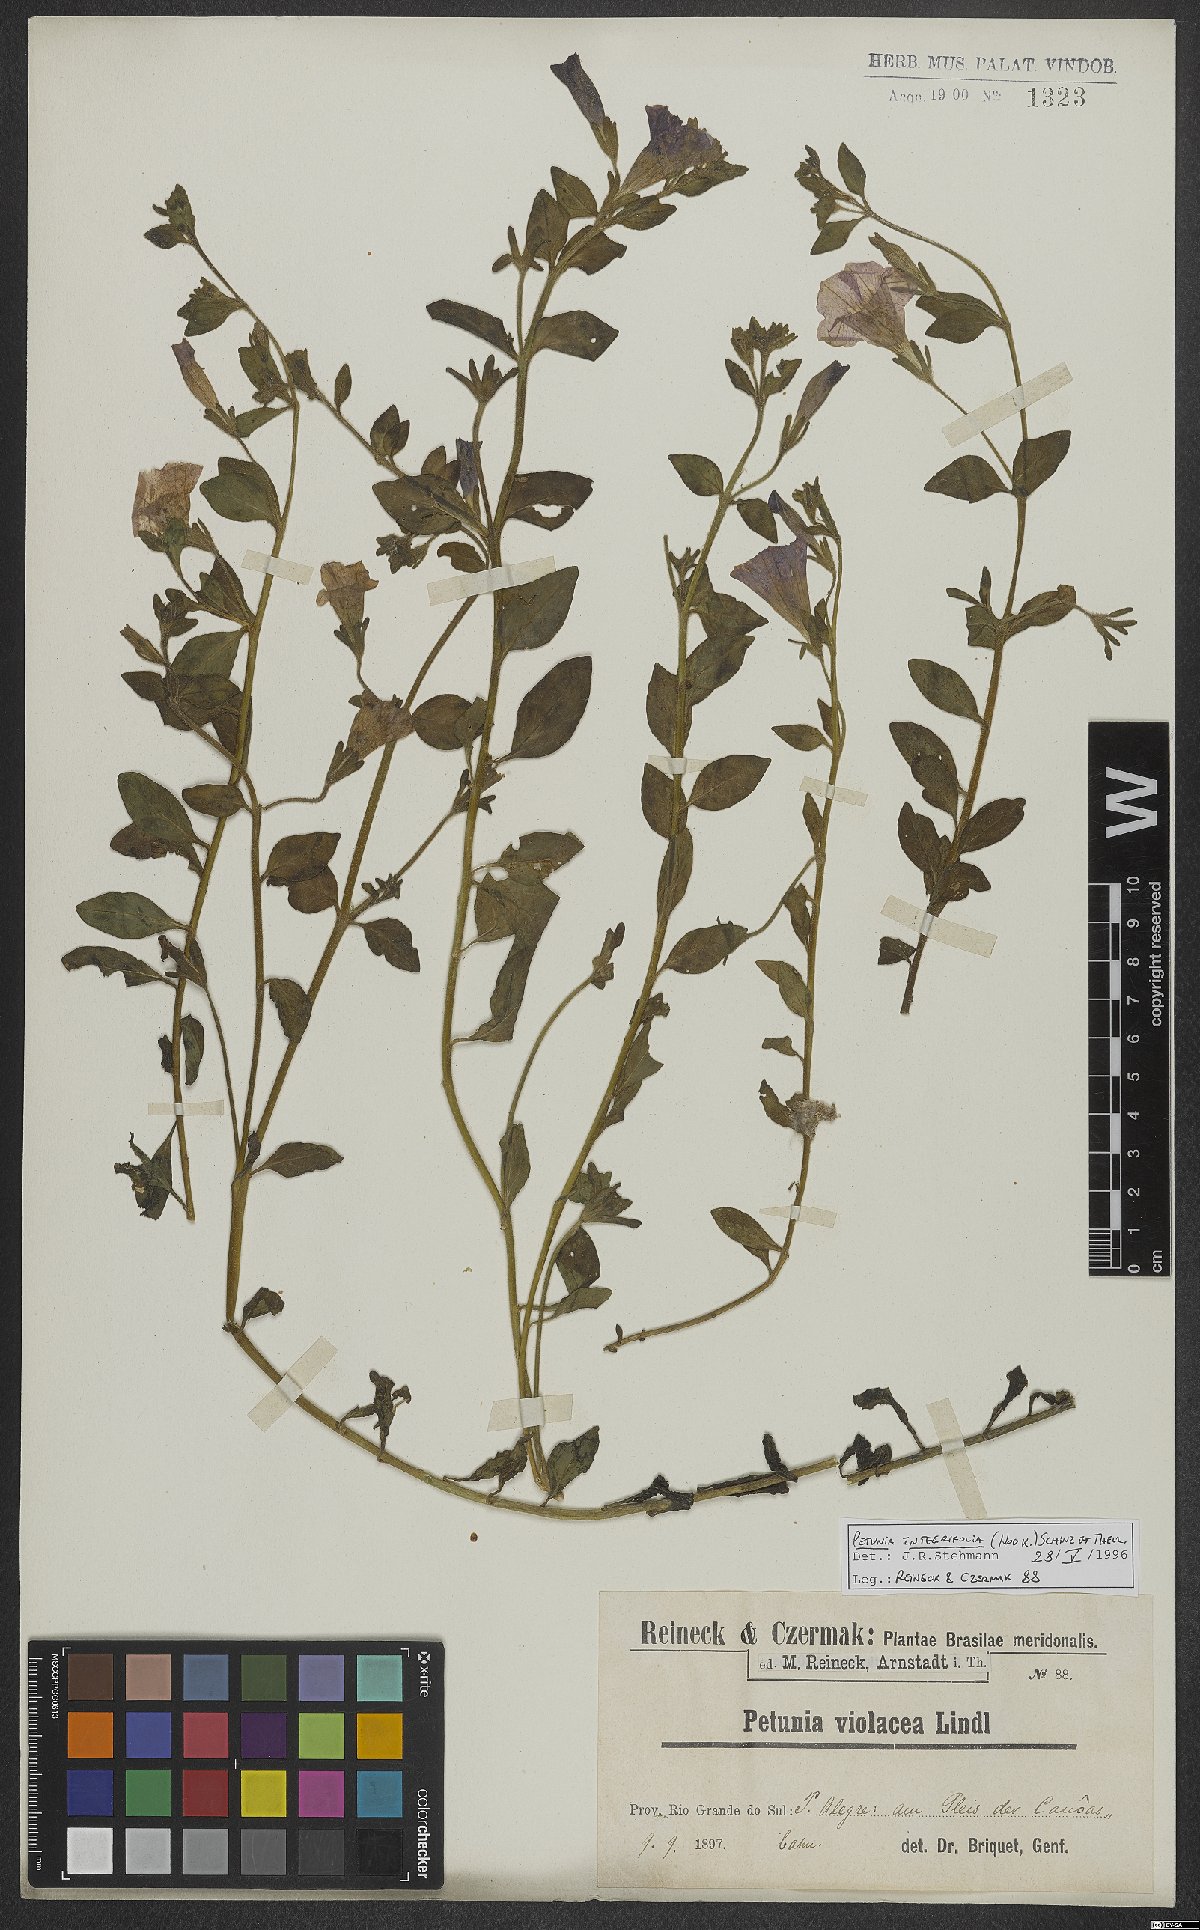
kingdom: Plantae
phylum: Tracheophyta
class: Magnoliopsida
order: Solanales
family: Solanaceae
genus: Petunia
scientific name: Petunia integrifolia
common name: Violet-flower petunia
